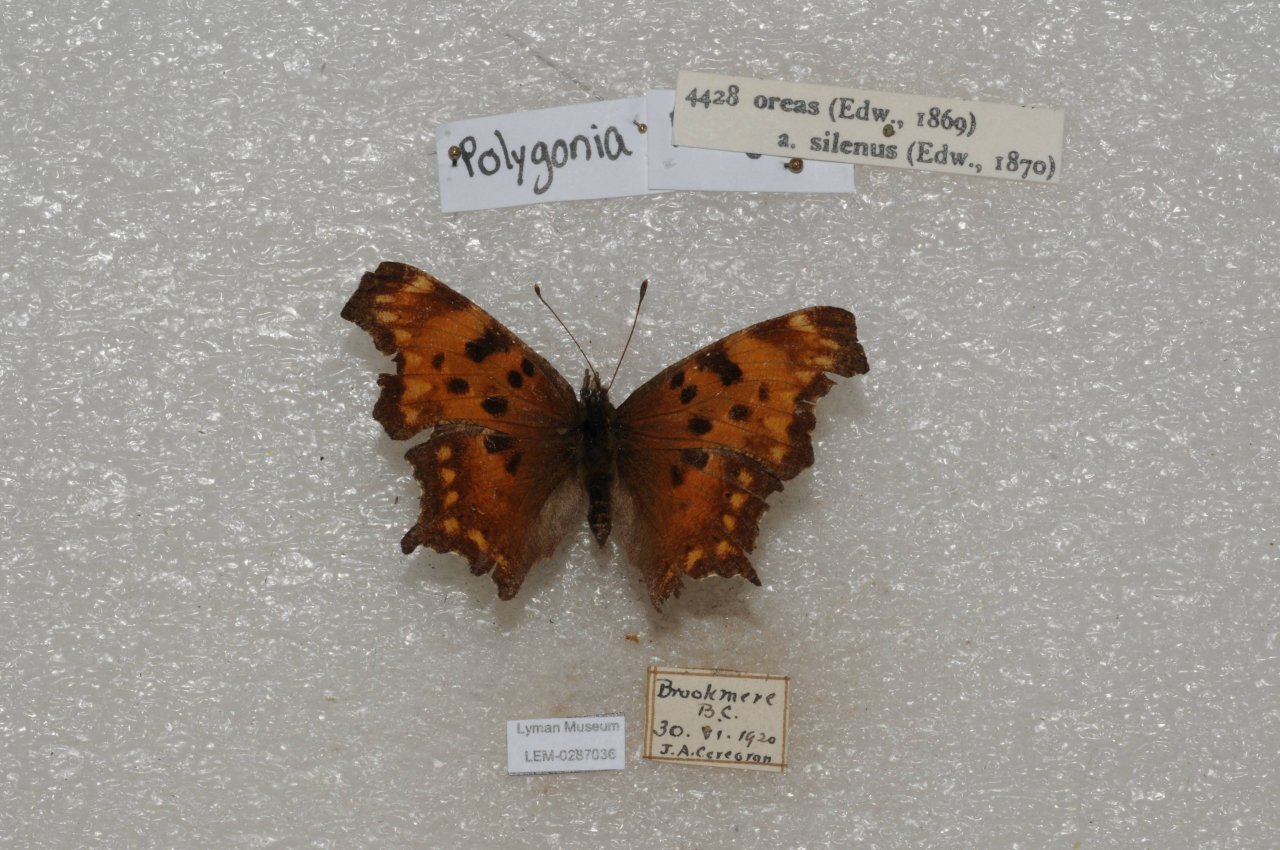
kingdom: Animalia
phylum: Arthropoda
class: Insecta
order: Lepidoptera
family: Nymphalidae
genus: Polygonia
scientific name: Polygonia oreas
